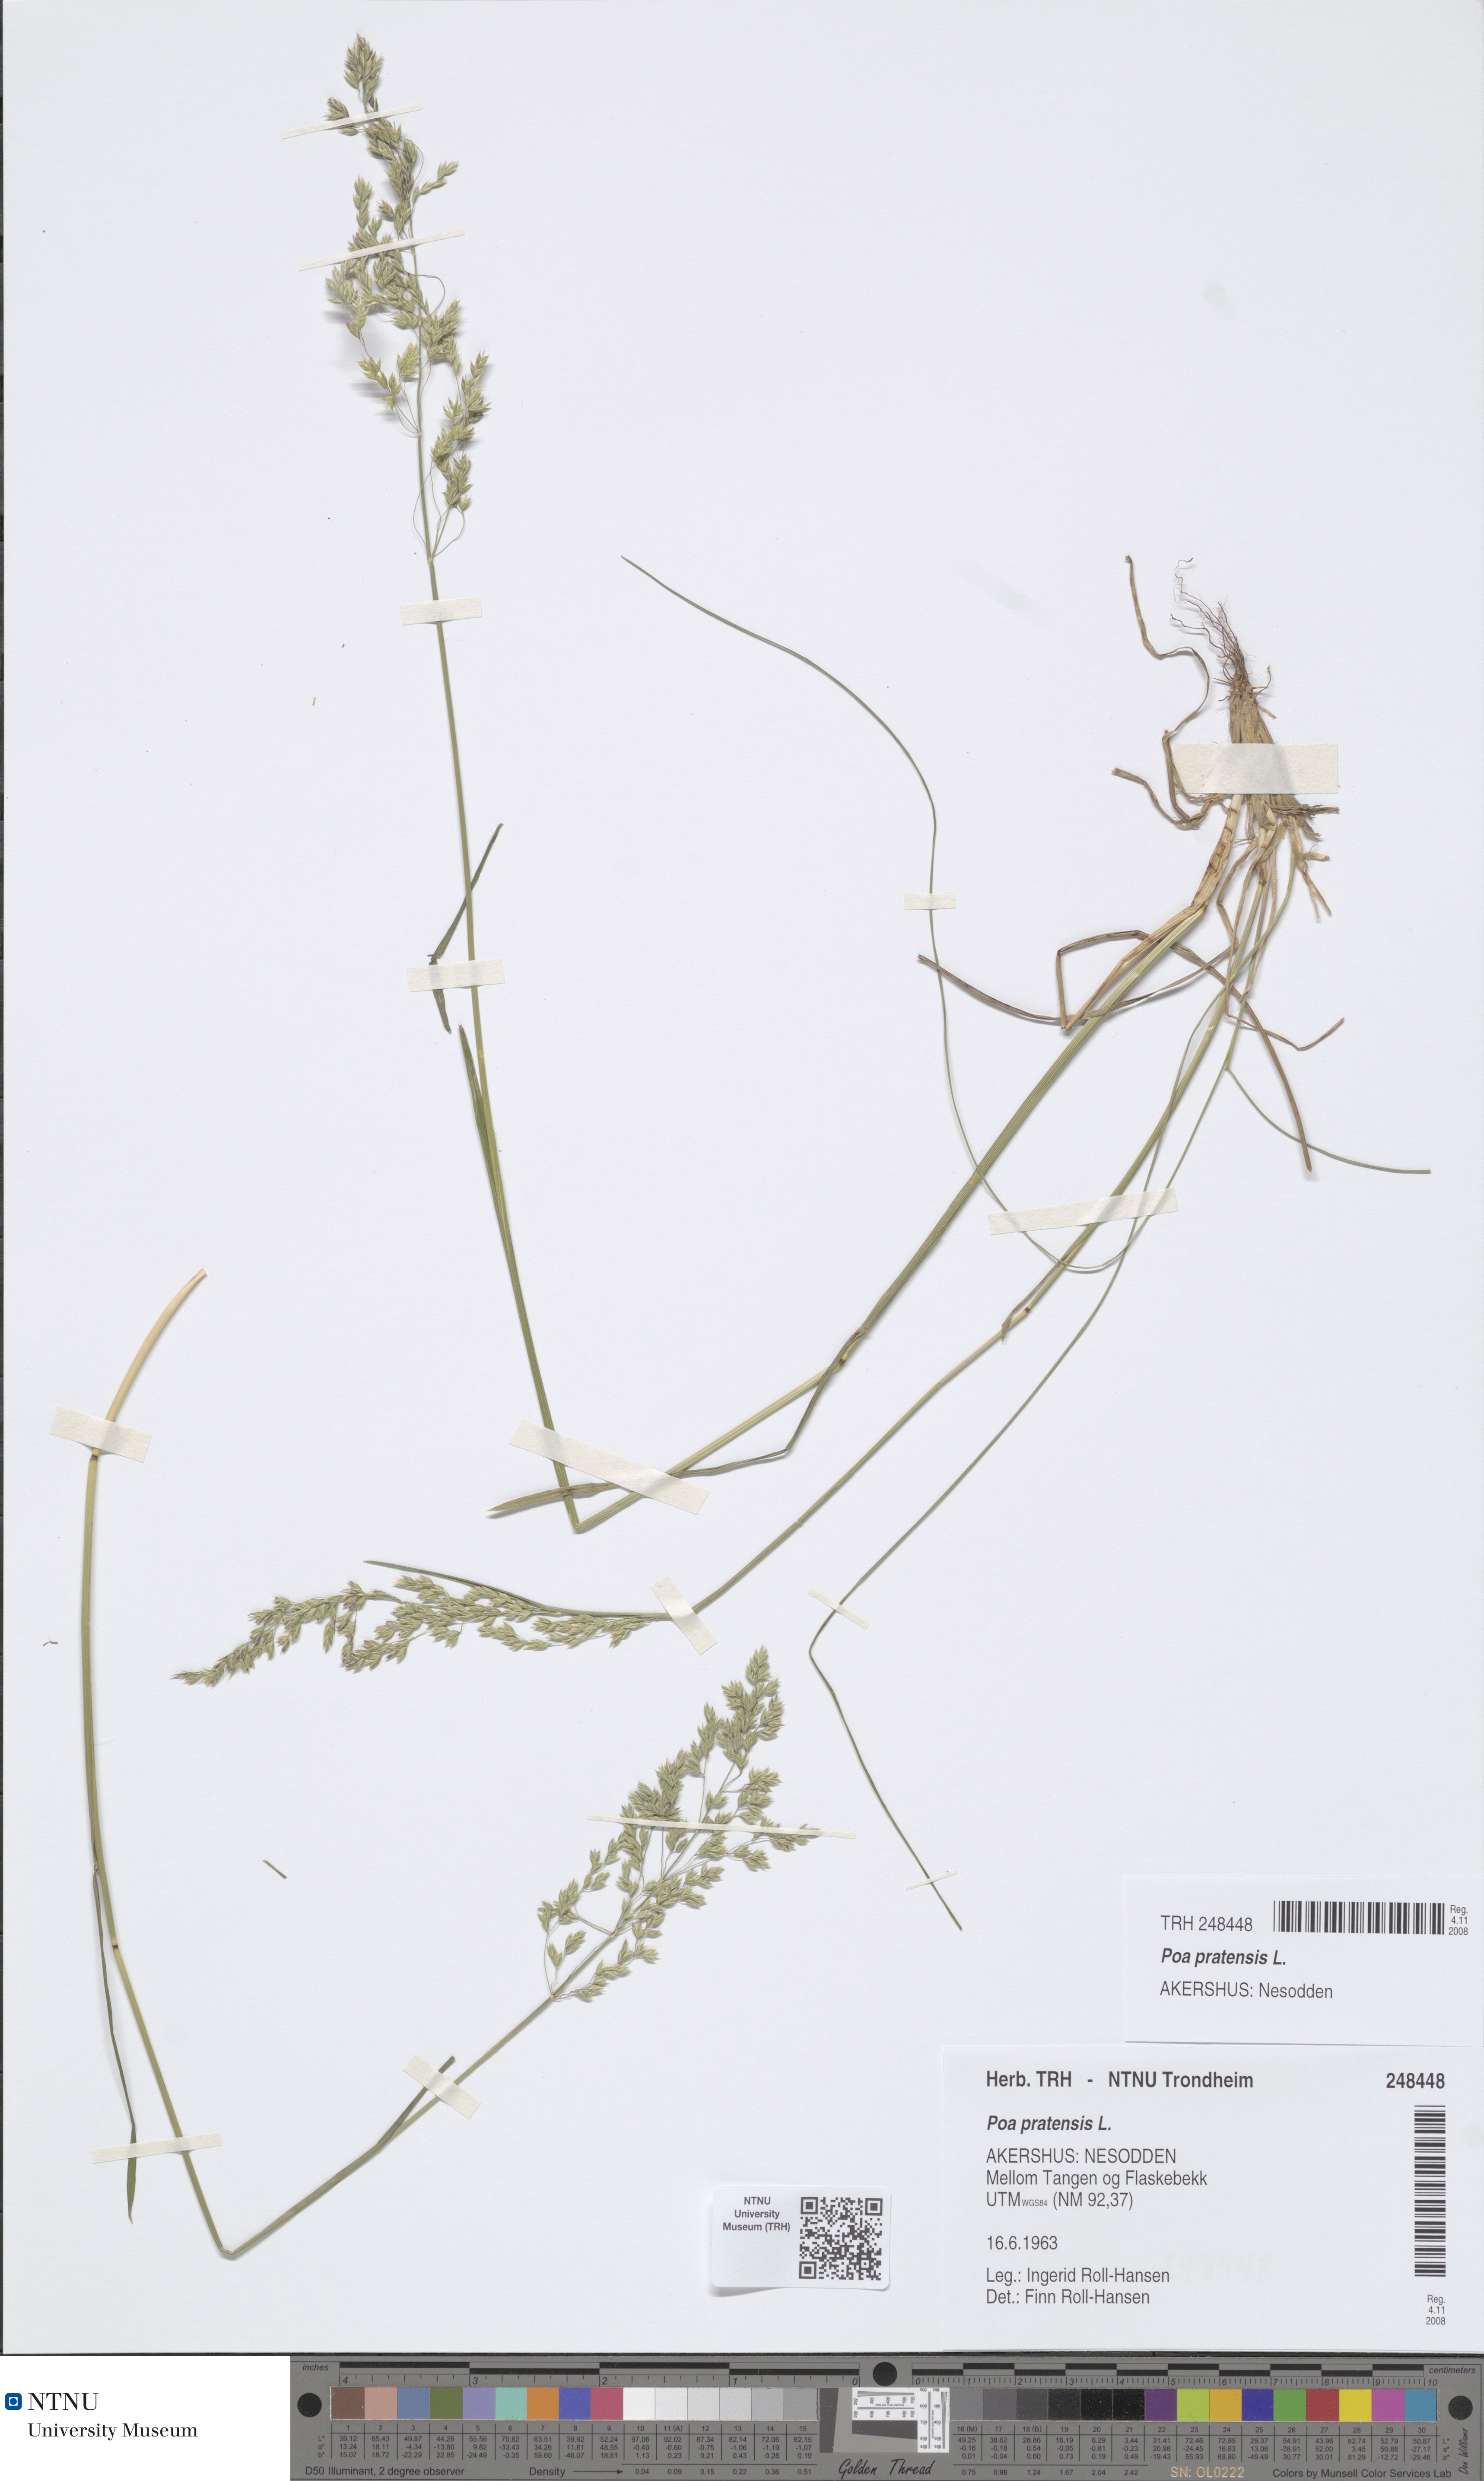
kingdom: Plantae
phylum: Tracheophyta
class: Liliopsida
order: Poales
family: Poaceae
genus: Poa
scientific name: Poa pratensis
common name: Kentucky bluegrass
